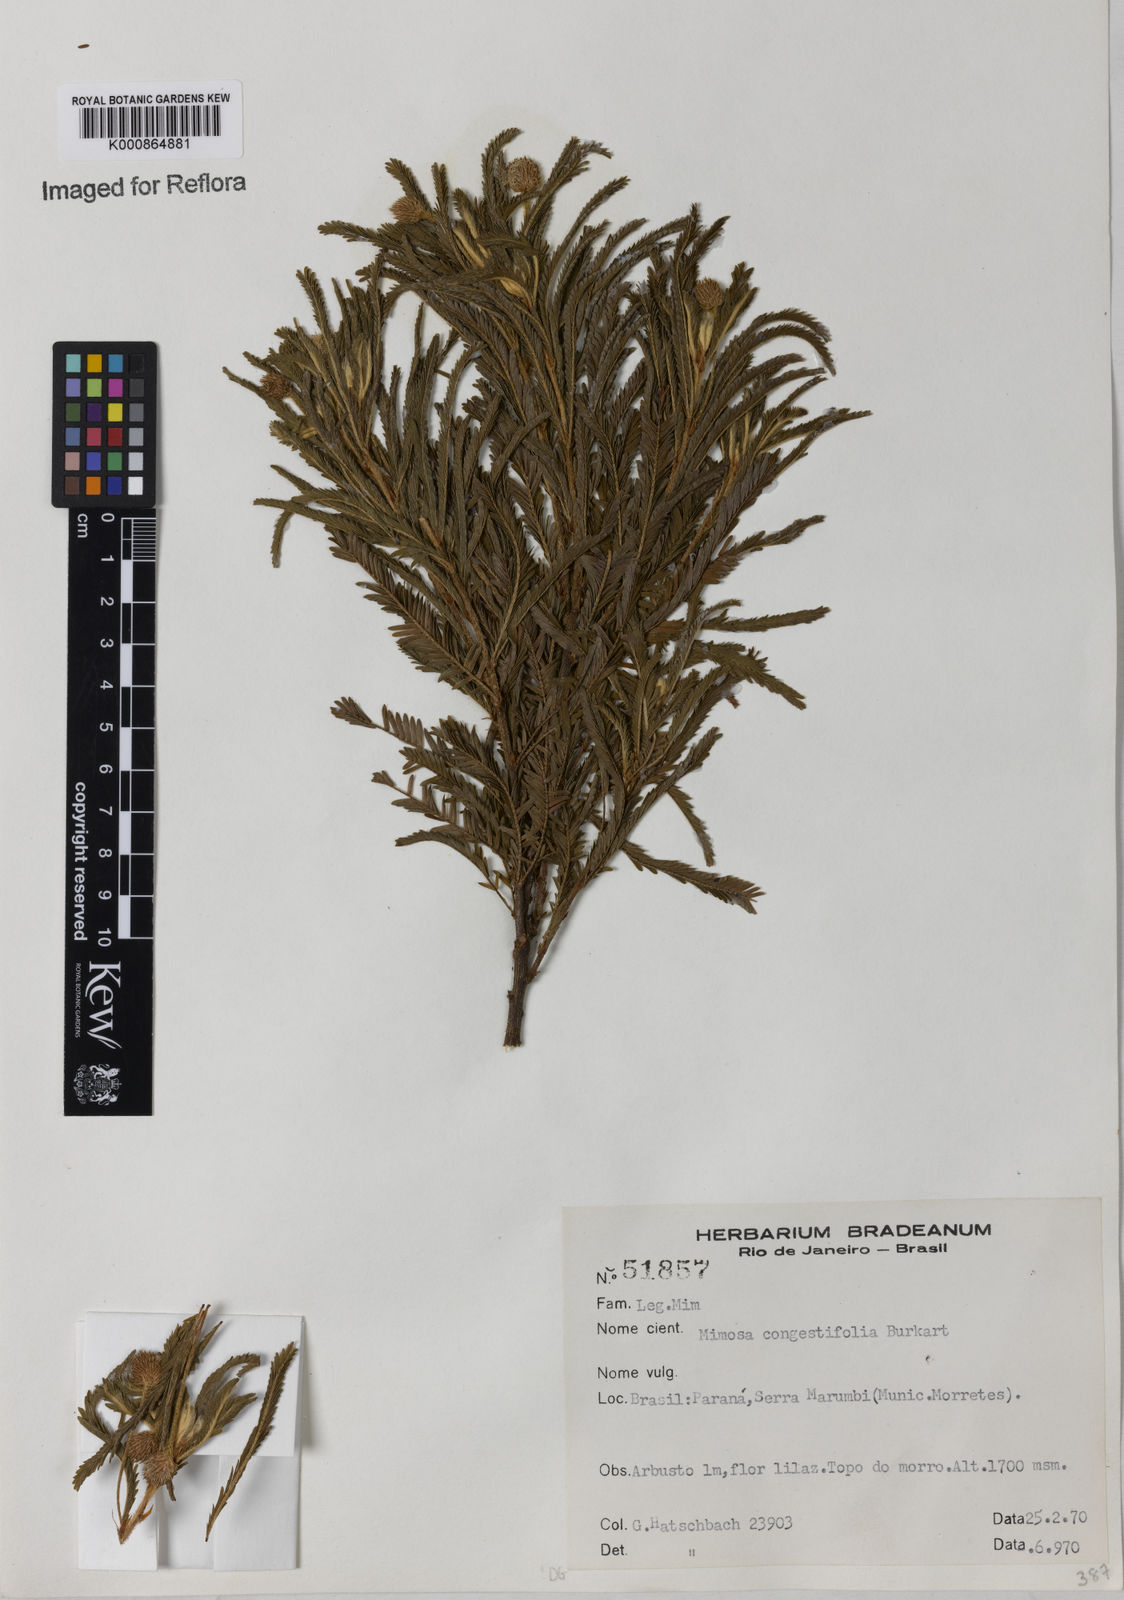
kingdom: Plantae
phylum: Tracheophyta
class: Magnoliopsida
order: Fabales
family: Fabaceae
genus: Mimosa
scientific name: Mimosa congestifolia
